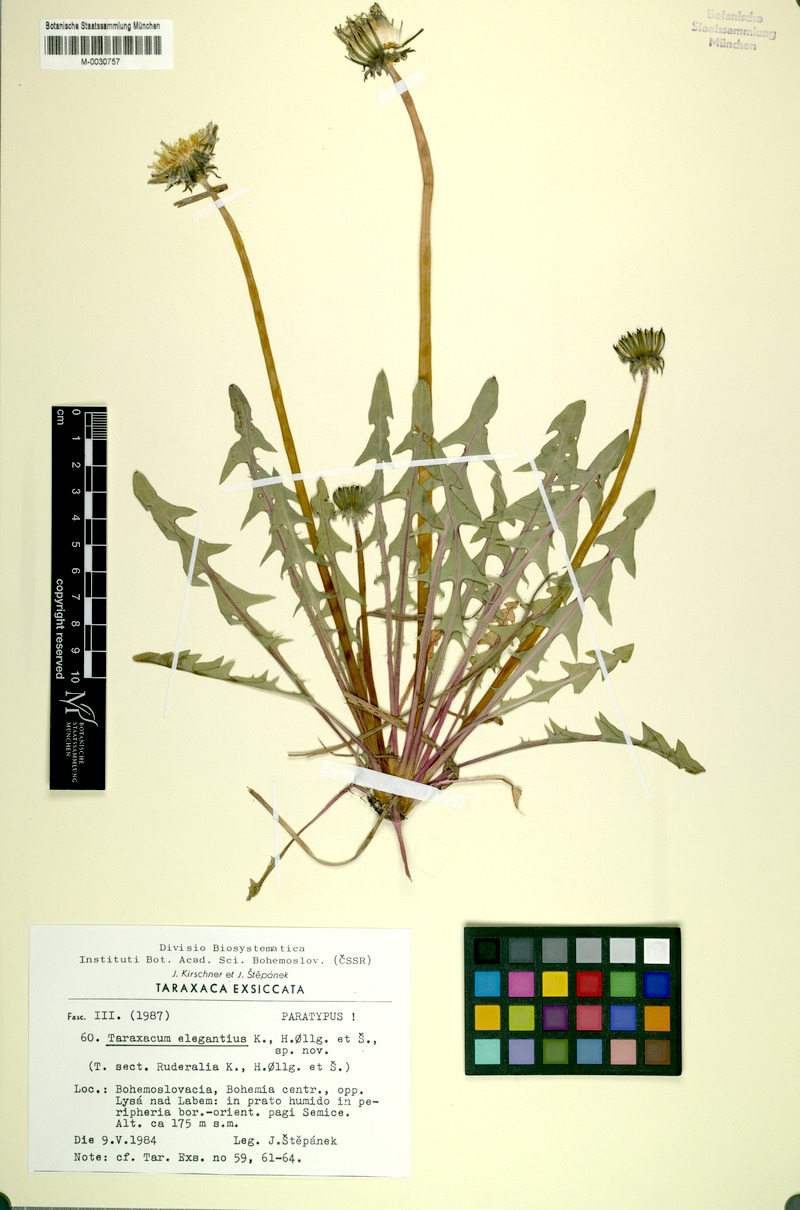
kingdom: Plantae
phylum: Tracheophyta
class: Magnoliopsida
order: Asterales
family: Asteraceae
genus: Taraxacum
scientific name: Taraxacum elegantius
